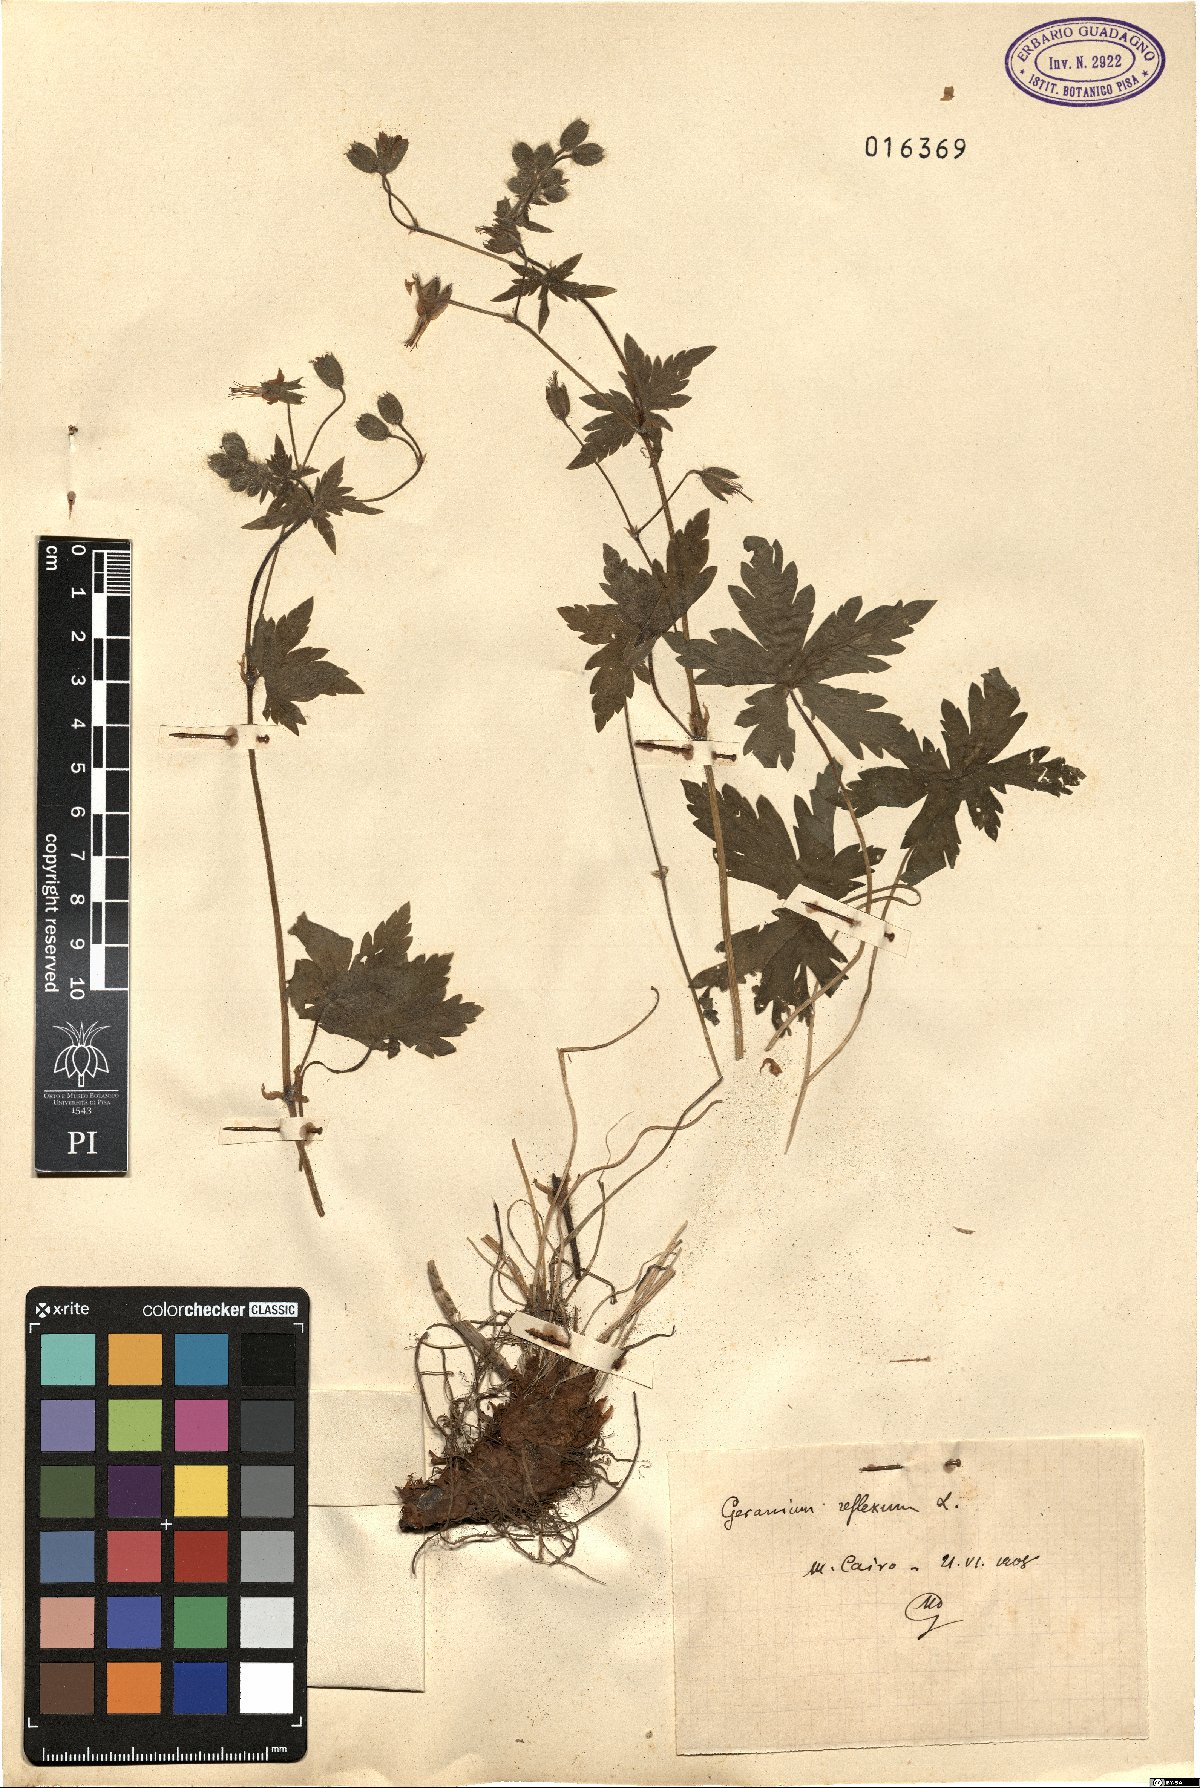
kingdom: Plantae
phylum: Tracheophyta
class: Magnoliopsida
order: Geraniales
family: Geraniaceae
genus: Geranium
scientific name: Geranium reflexum
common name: Reflexed crane's-bill
